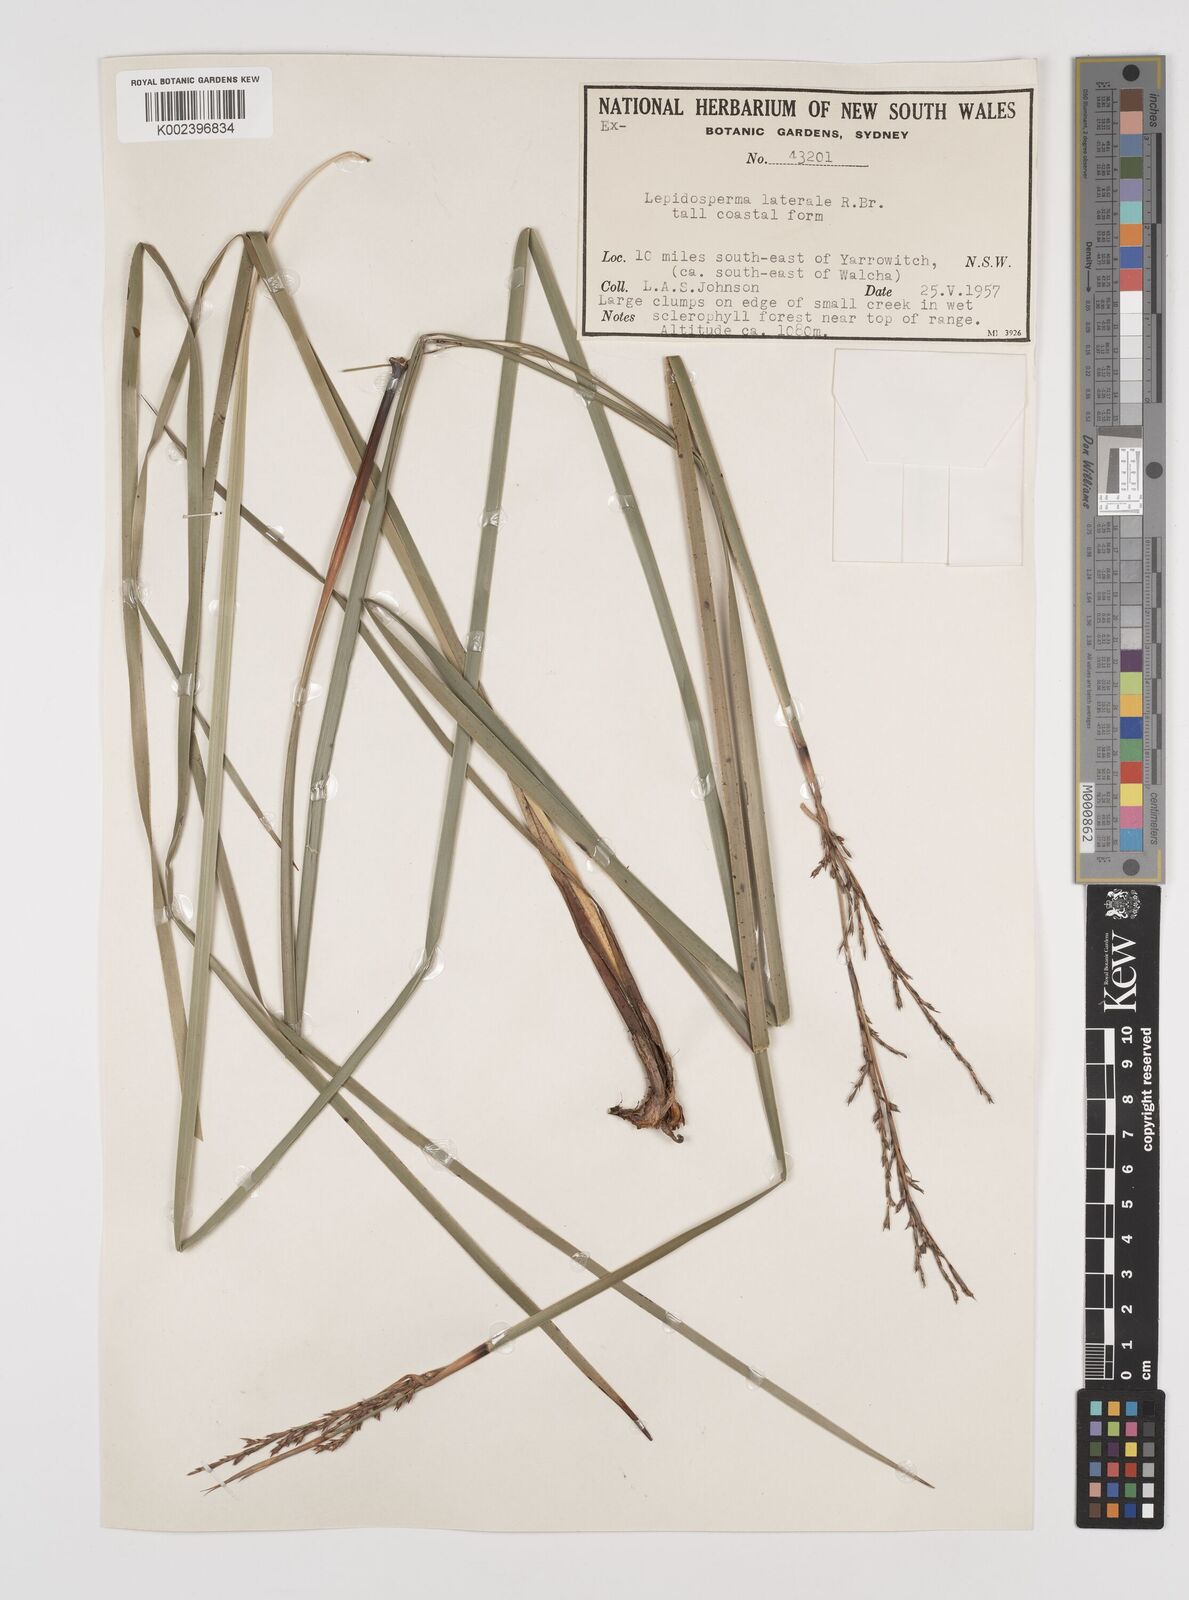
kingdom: Plantae
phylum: Tracheophyta
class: Liliopsida
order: Poales
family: Cyperaceae
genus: Lepidosperma
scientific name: Lepidosperma laterale
